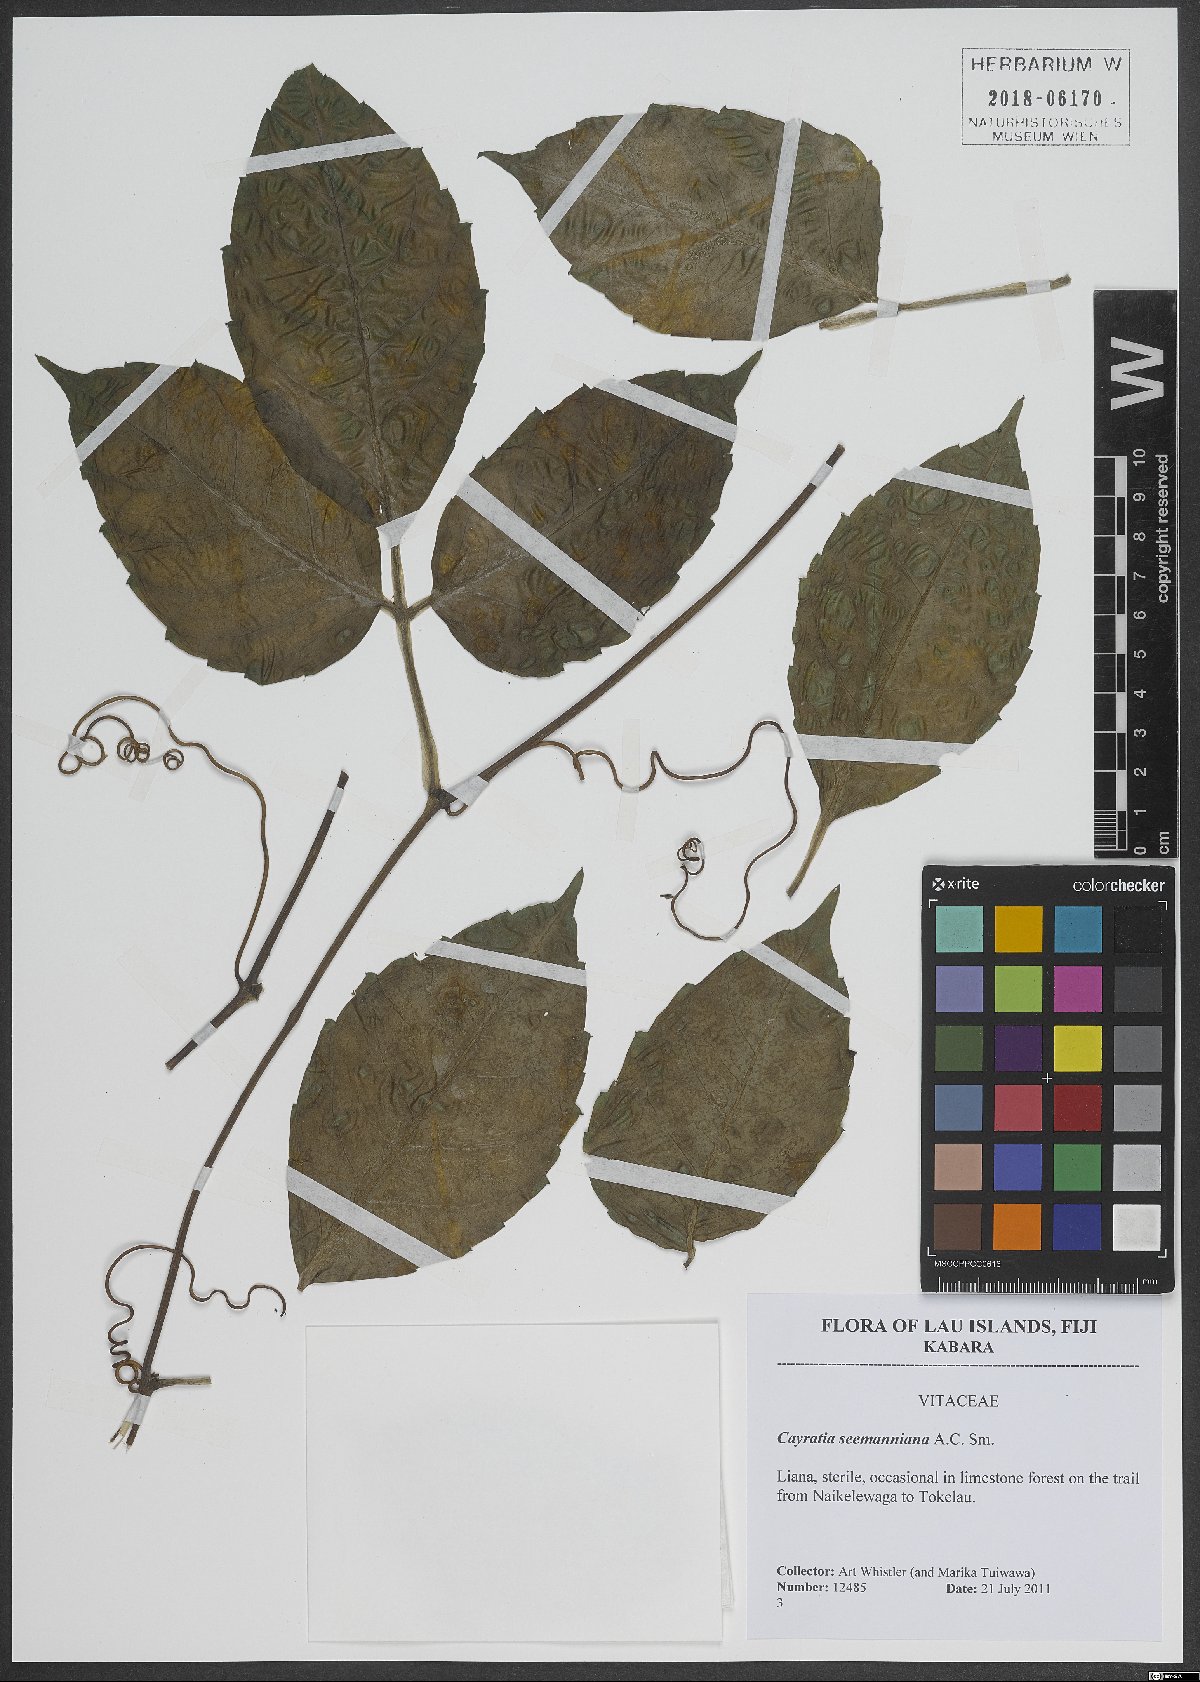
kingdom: Plantae
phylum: Tracheophyta
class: Magnoliopsida
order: Vitales
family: Vitaceae
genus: Cayratia
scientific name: Cayratia seemanniana
